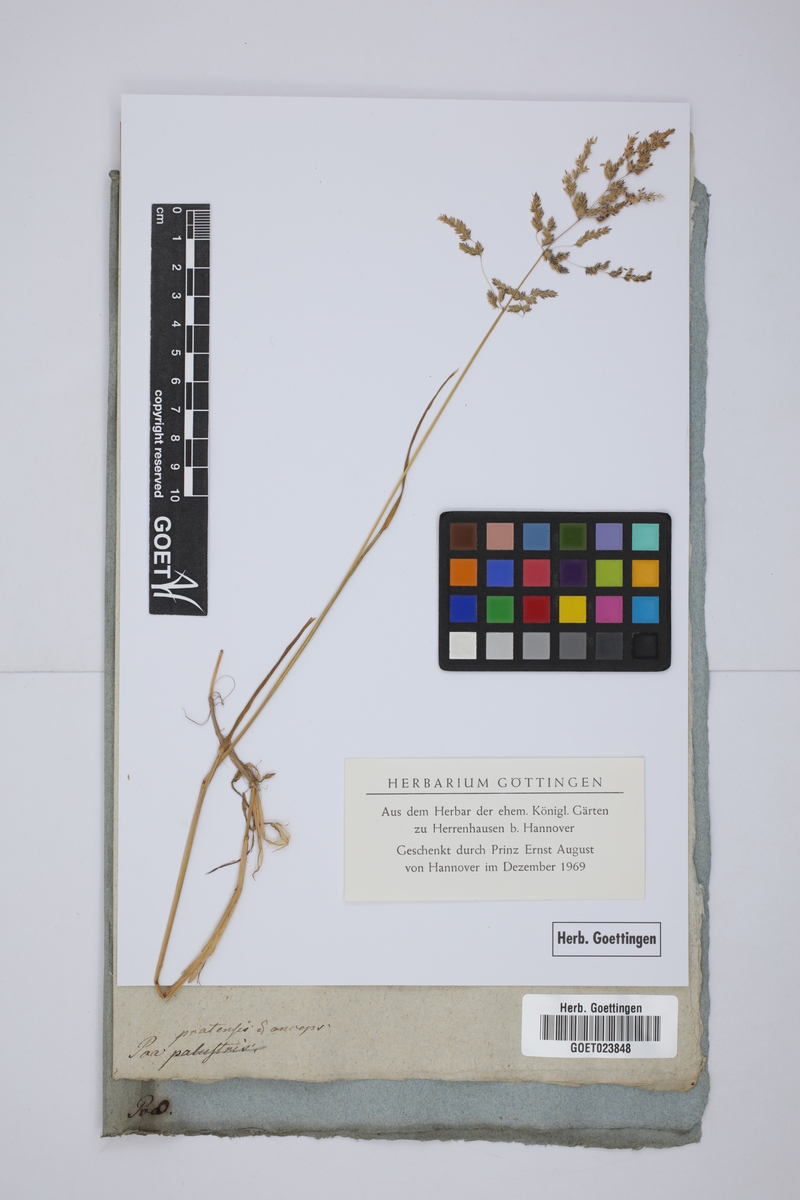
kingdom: Plantae
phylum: Tracheophyta
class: Liliopsida
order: Poales
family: Poaceae
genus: Poa
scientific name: Poa pratensis
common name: Kentucky bluegrass
